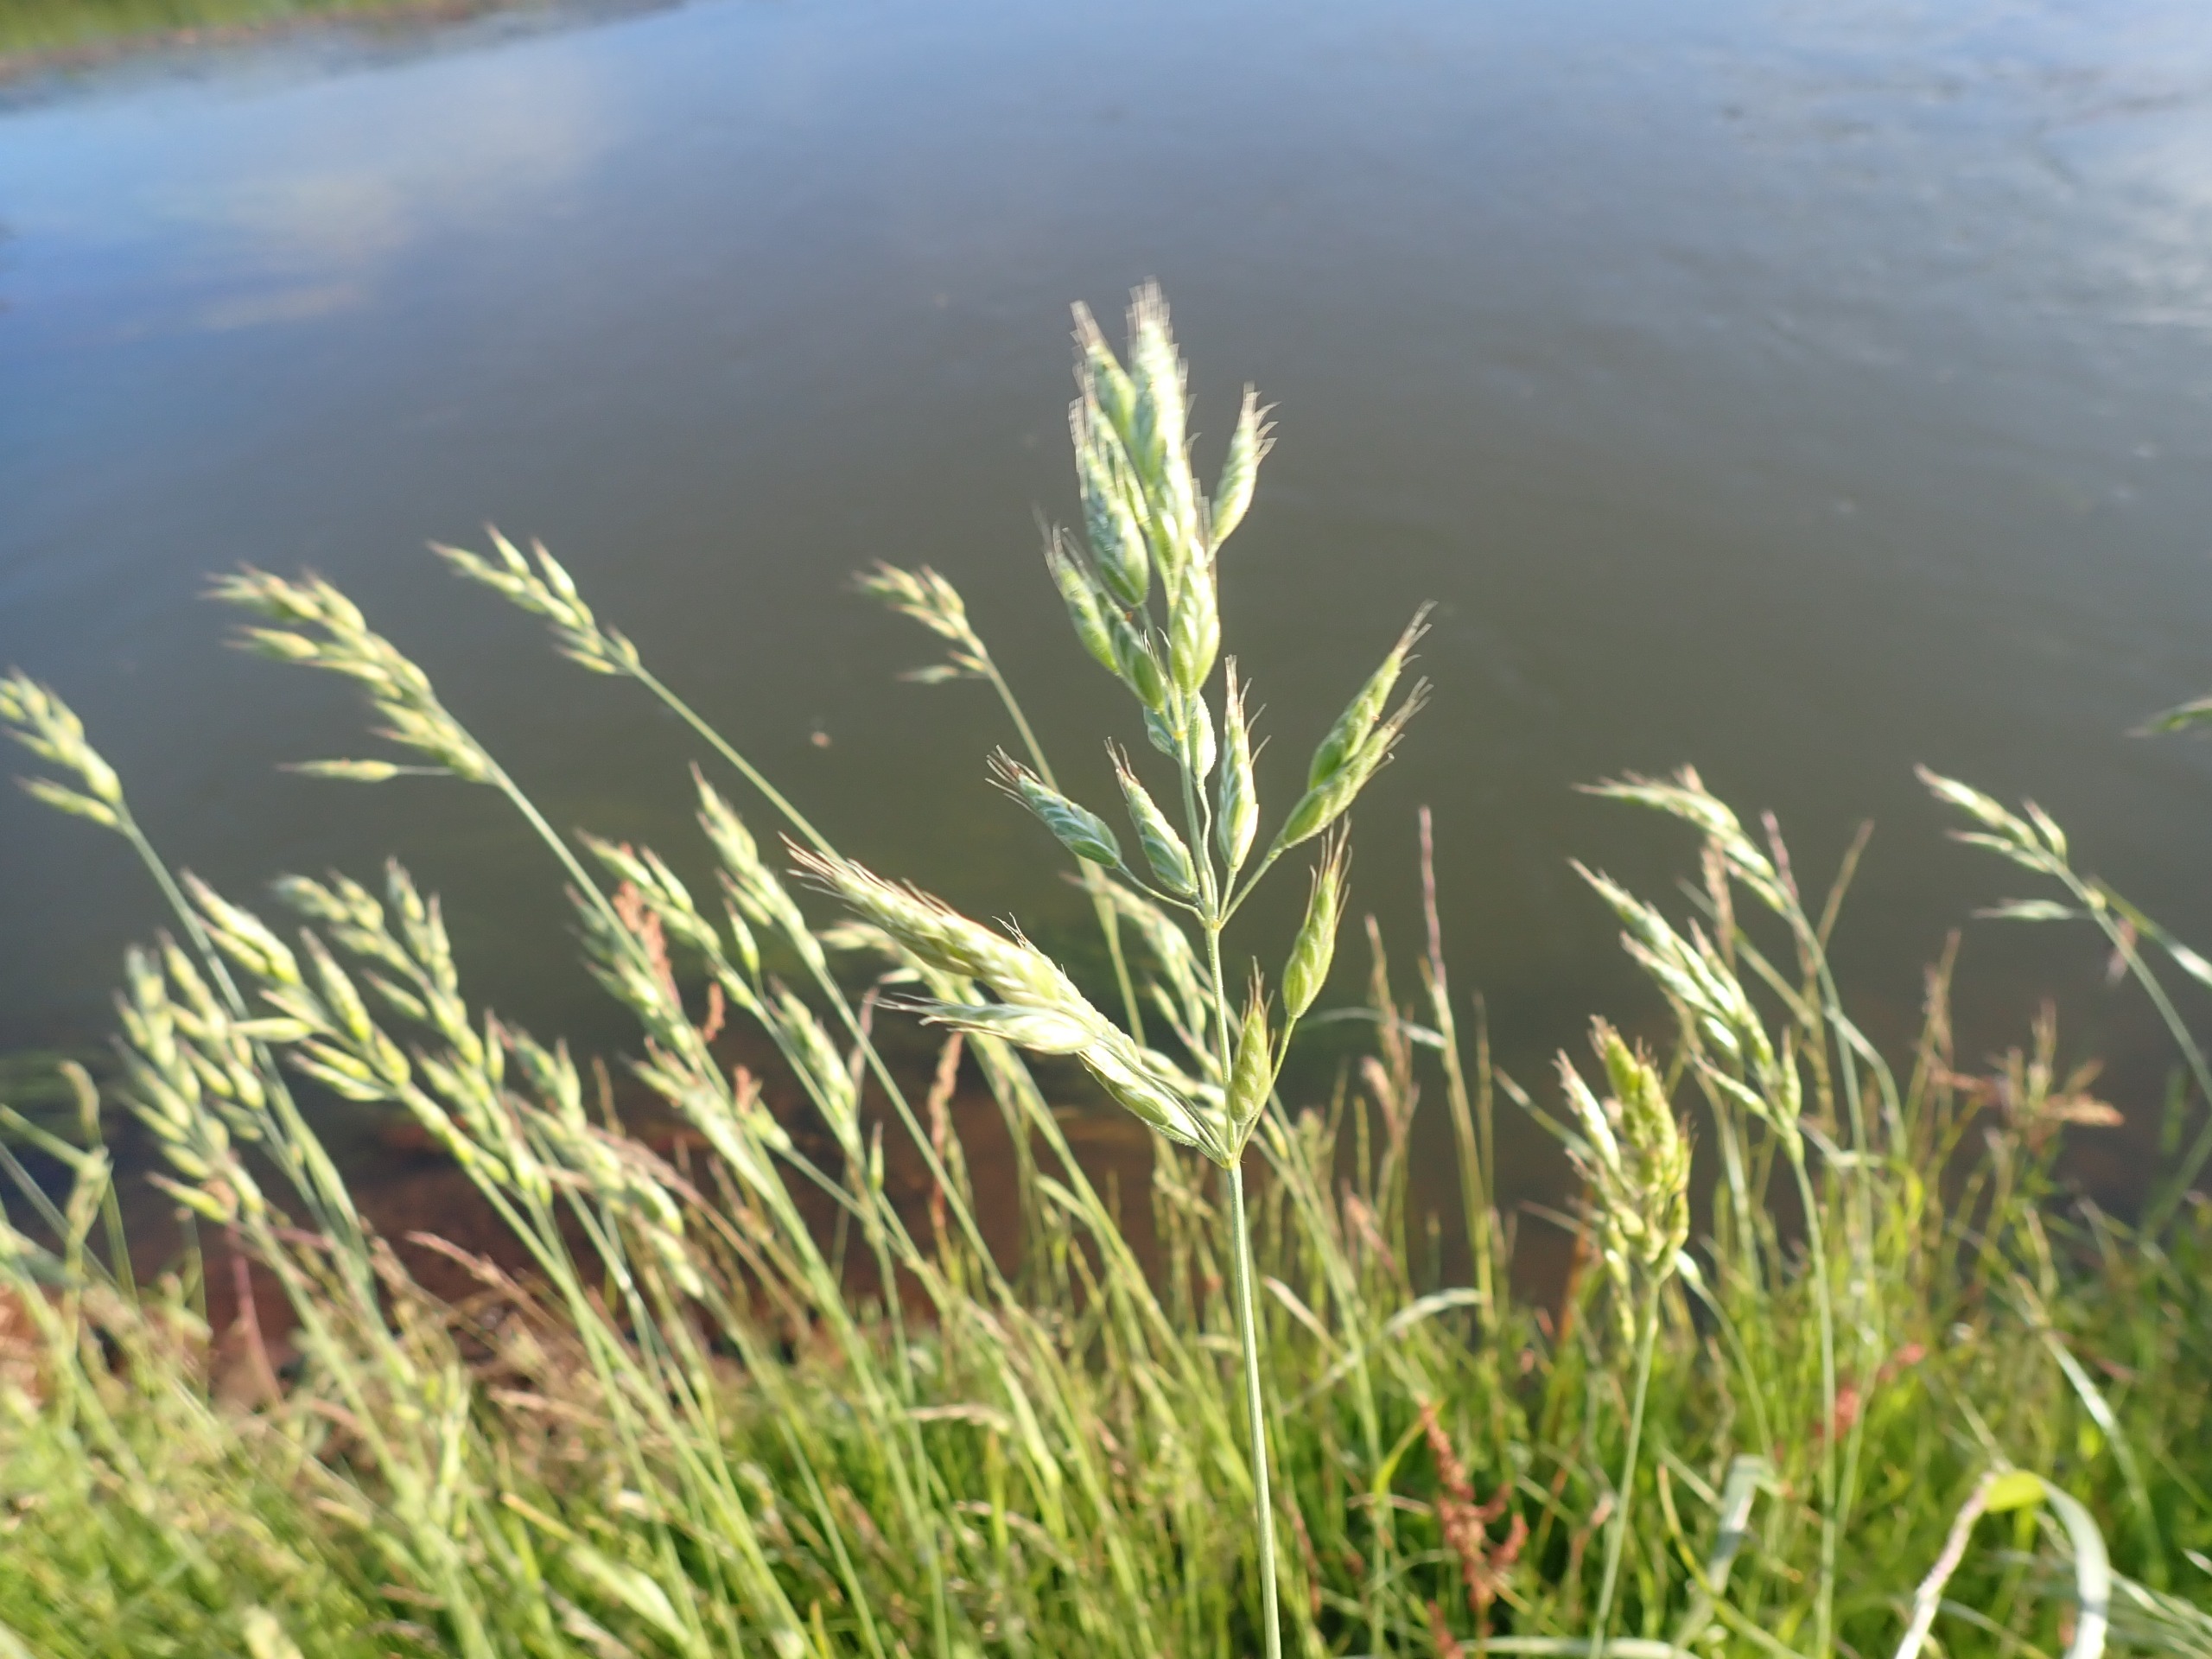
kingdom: Plantae
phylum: Tracheophyta
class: Liliopsida
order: Poales
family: Poaceae
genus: Bromus
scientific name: Bromus hordeaceus
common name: Blød hejre
